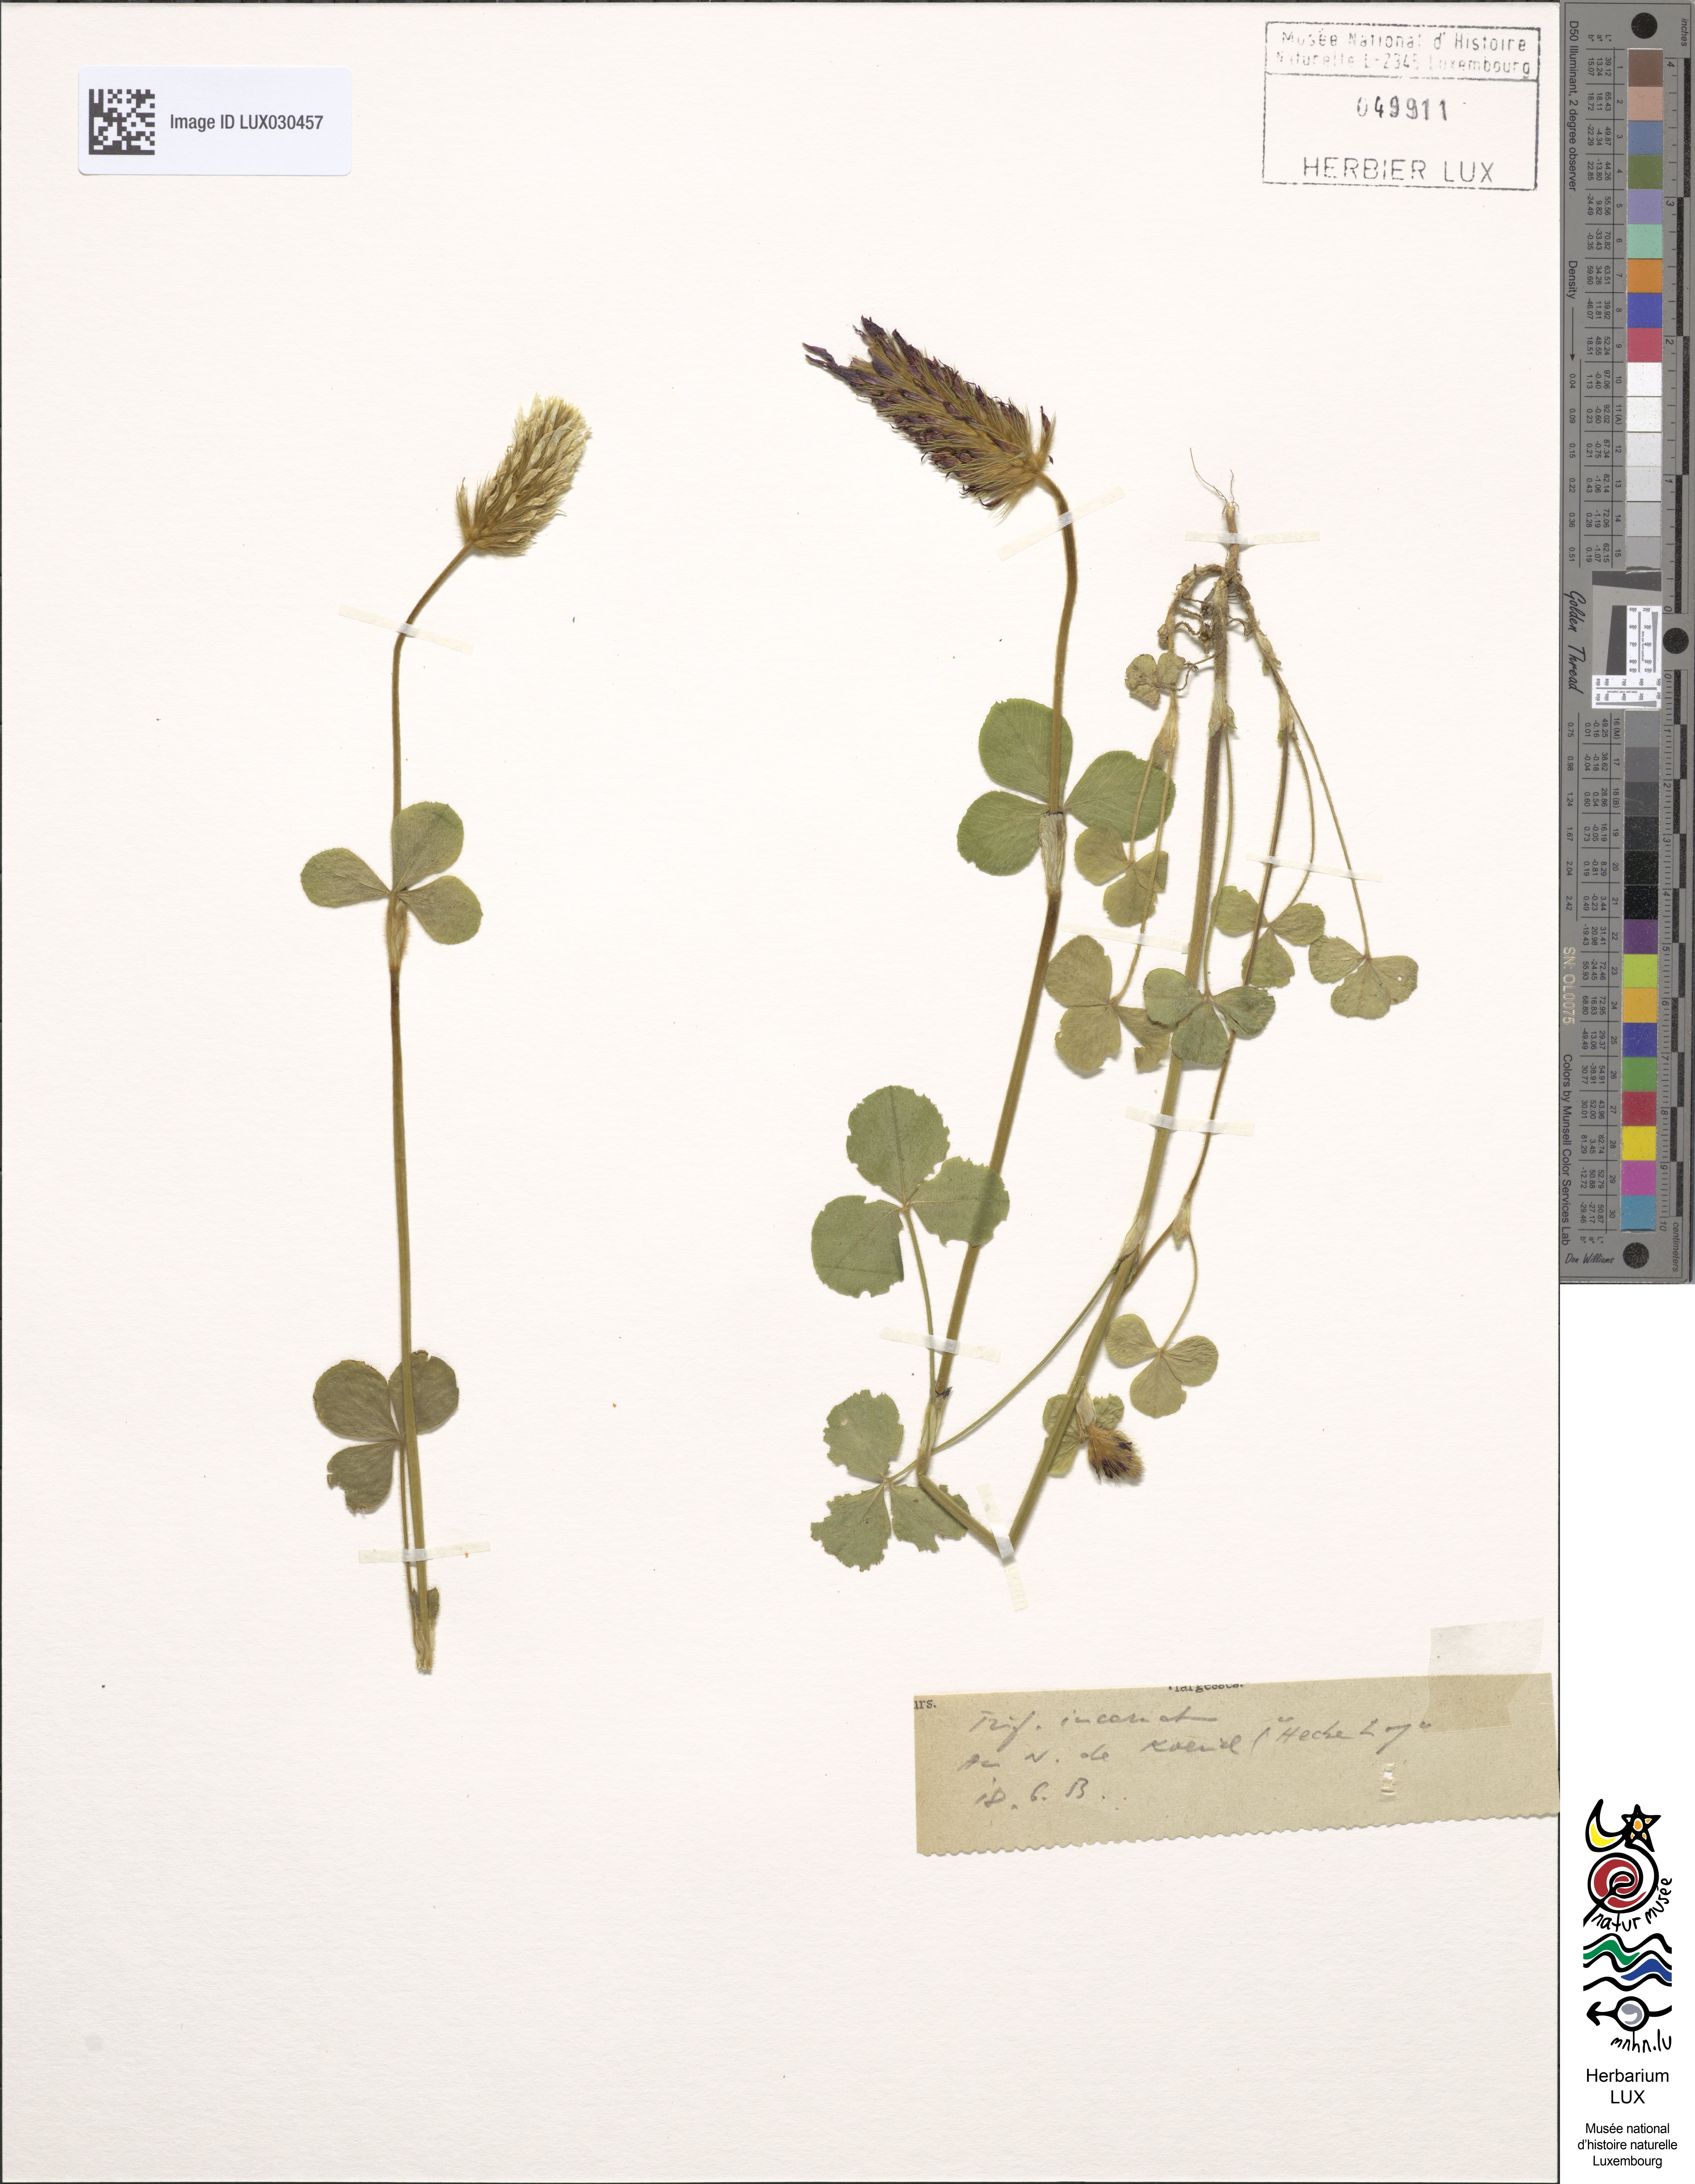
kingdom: Plantae
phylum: Tracheophyta
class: Magnoliopsida
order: Fabales
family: Fabaceae
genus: Trifolium
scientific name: Trifolium incarnatum
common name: Crimson clover
